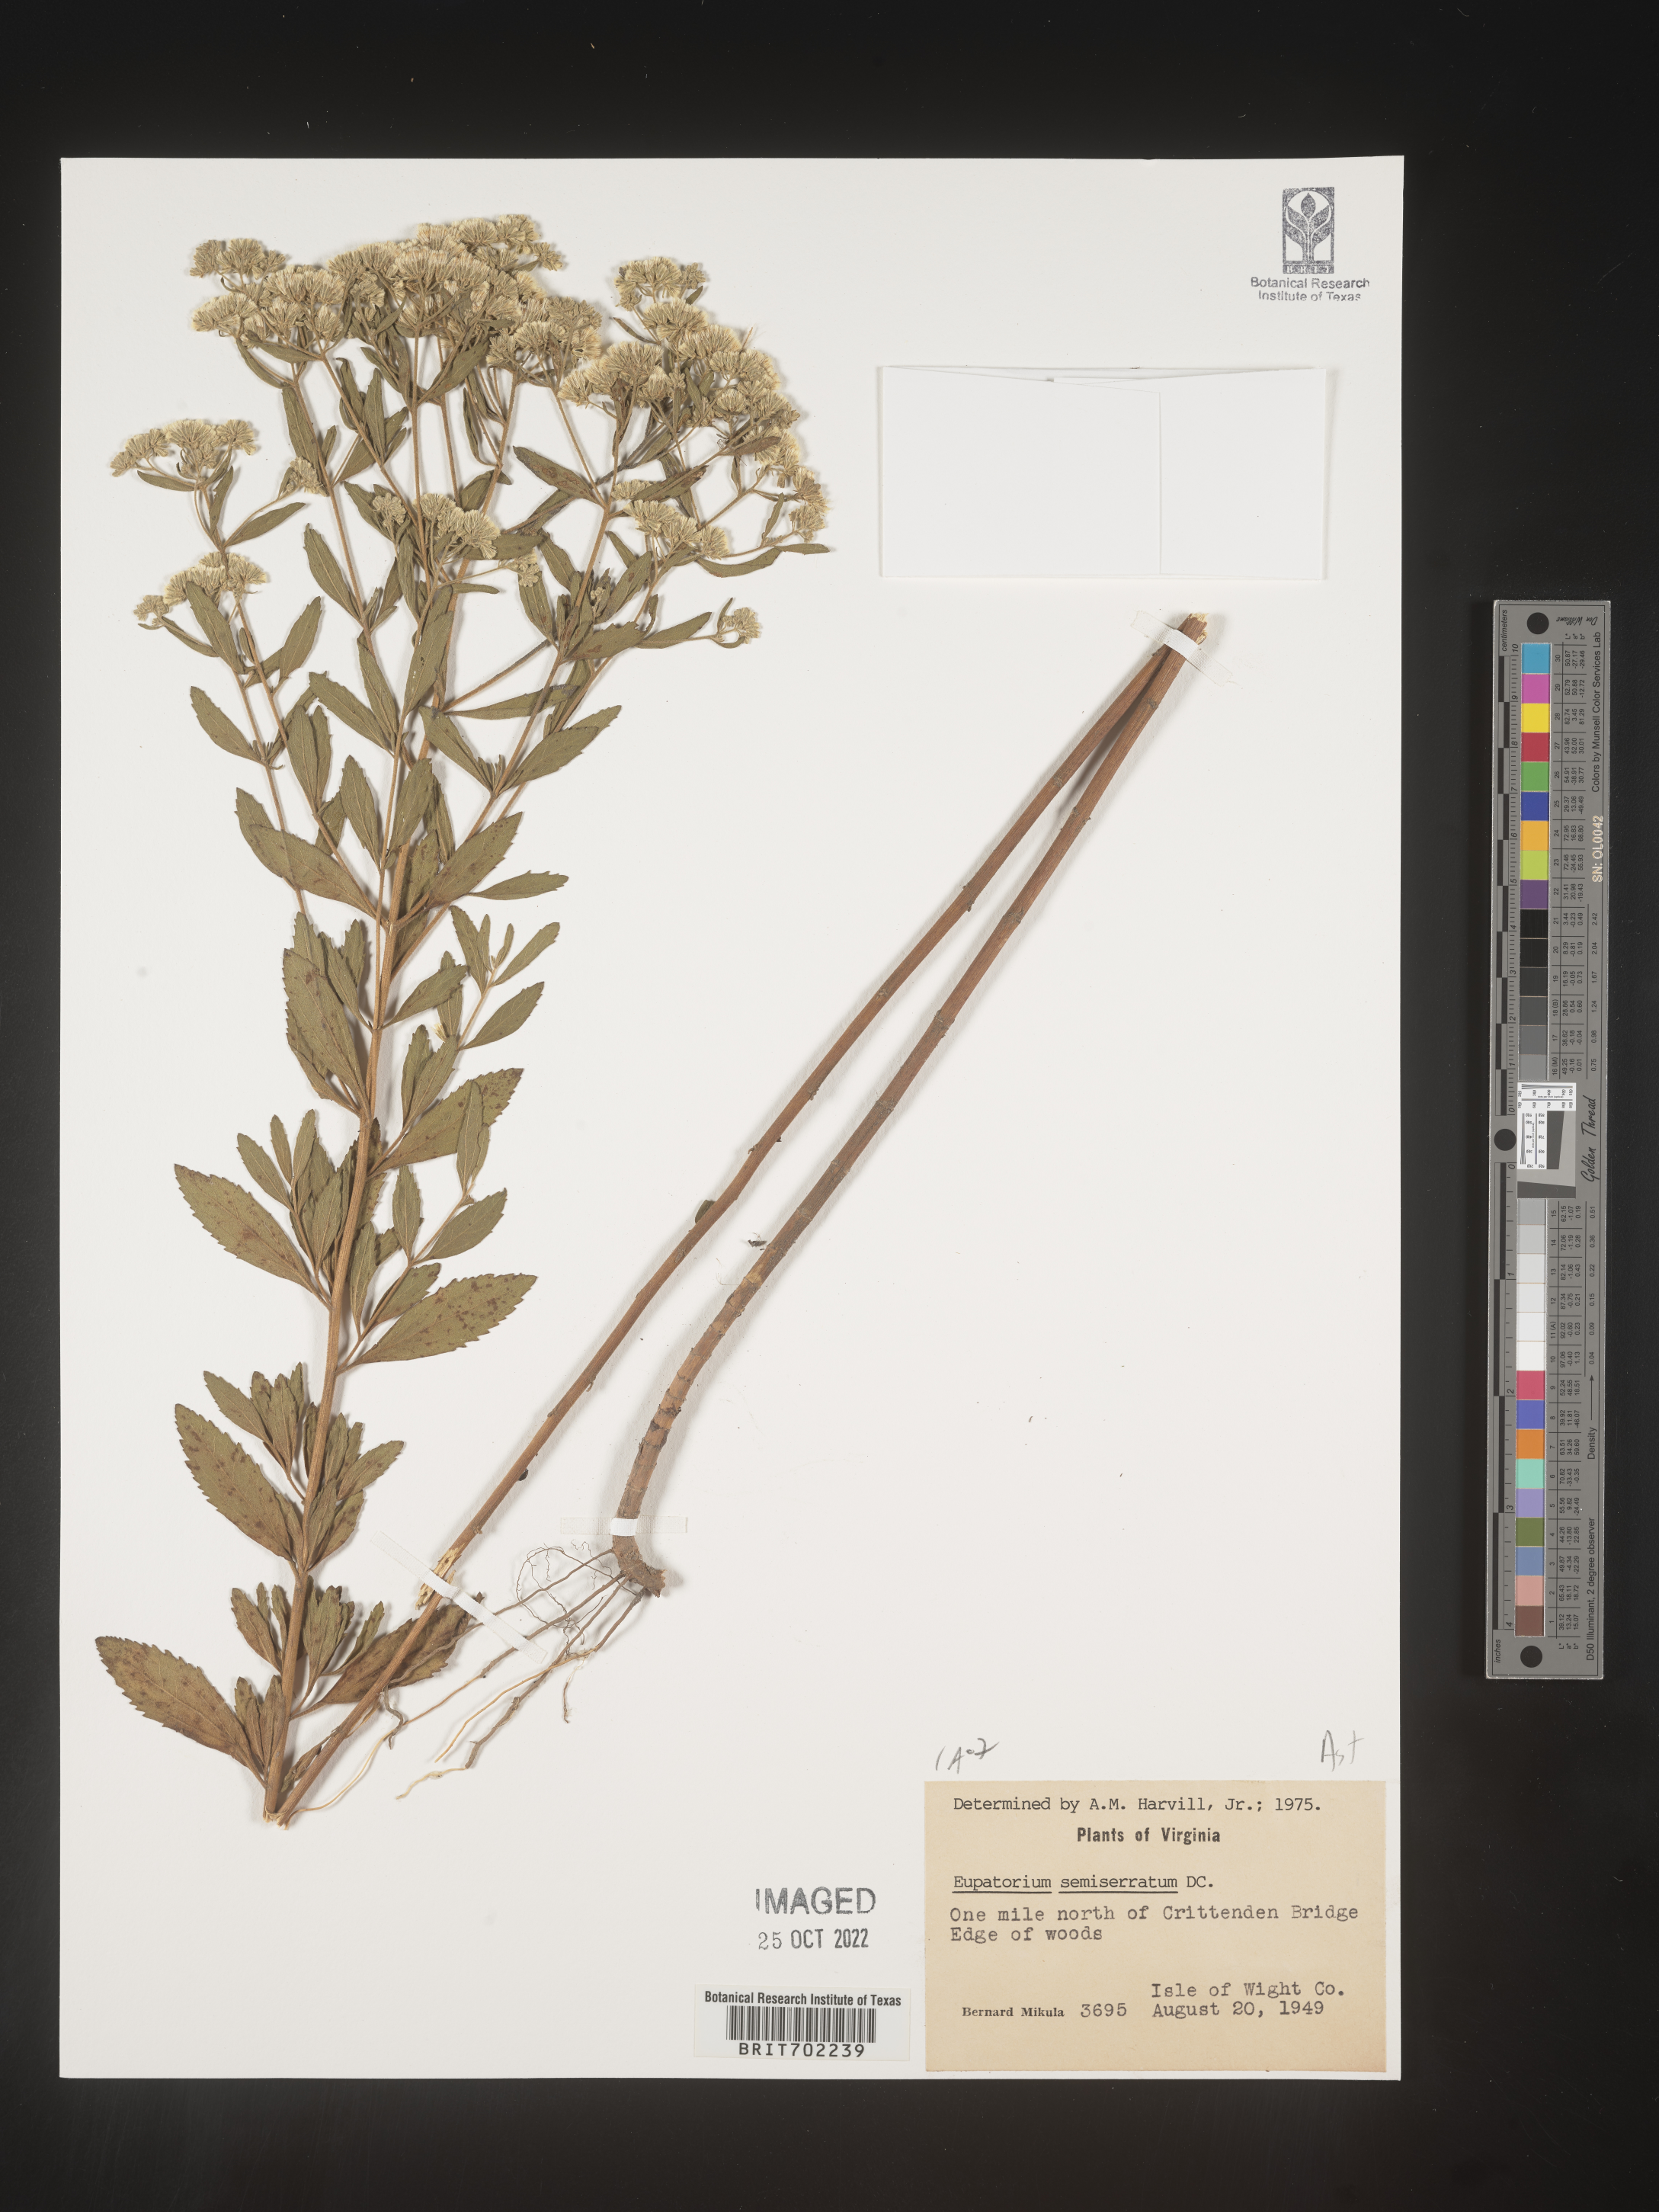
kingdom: Plantae
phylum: Tracheophyta
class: Magnoliopsida
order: Asterales
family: Asteraceae
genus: Eupatorium
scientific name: Eupatorium semiserratum
